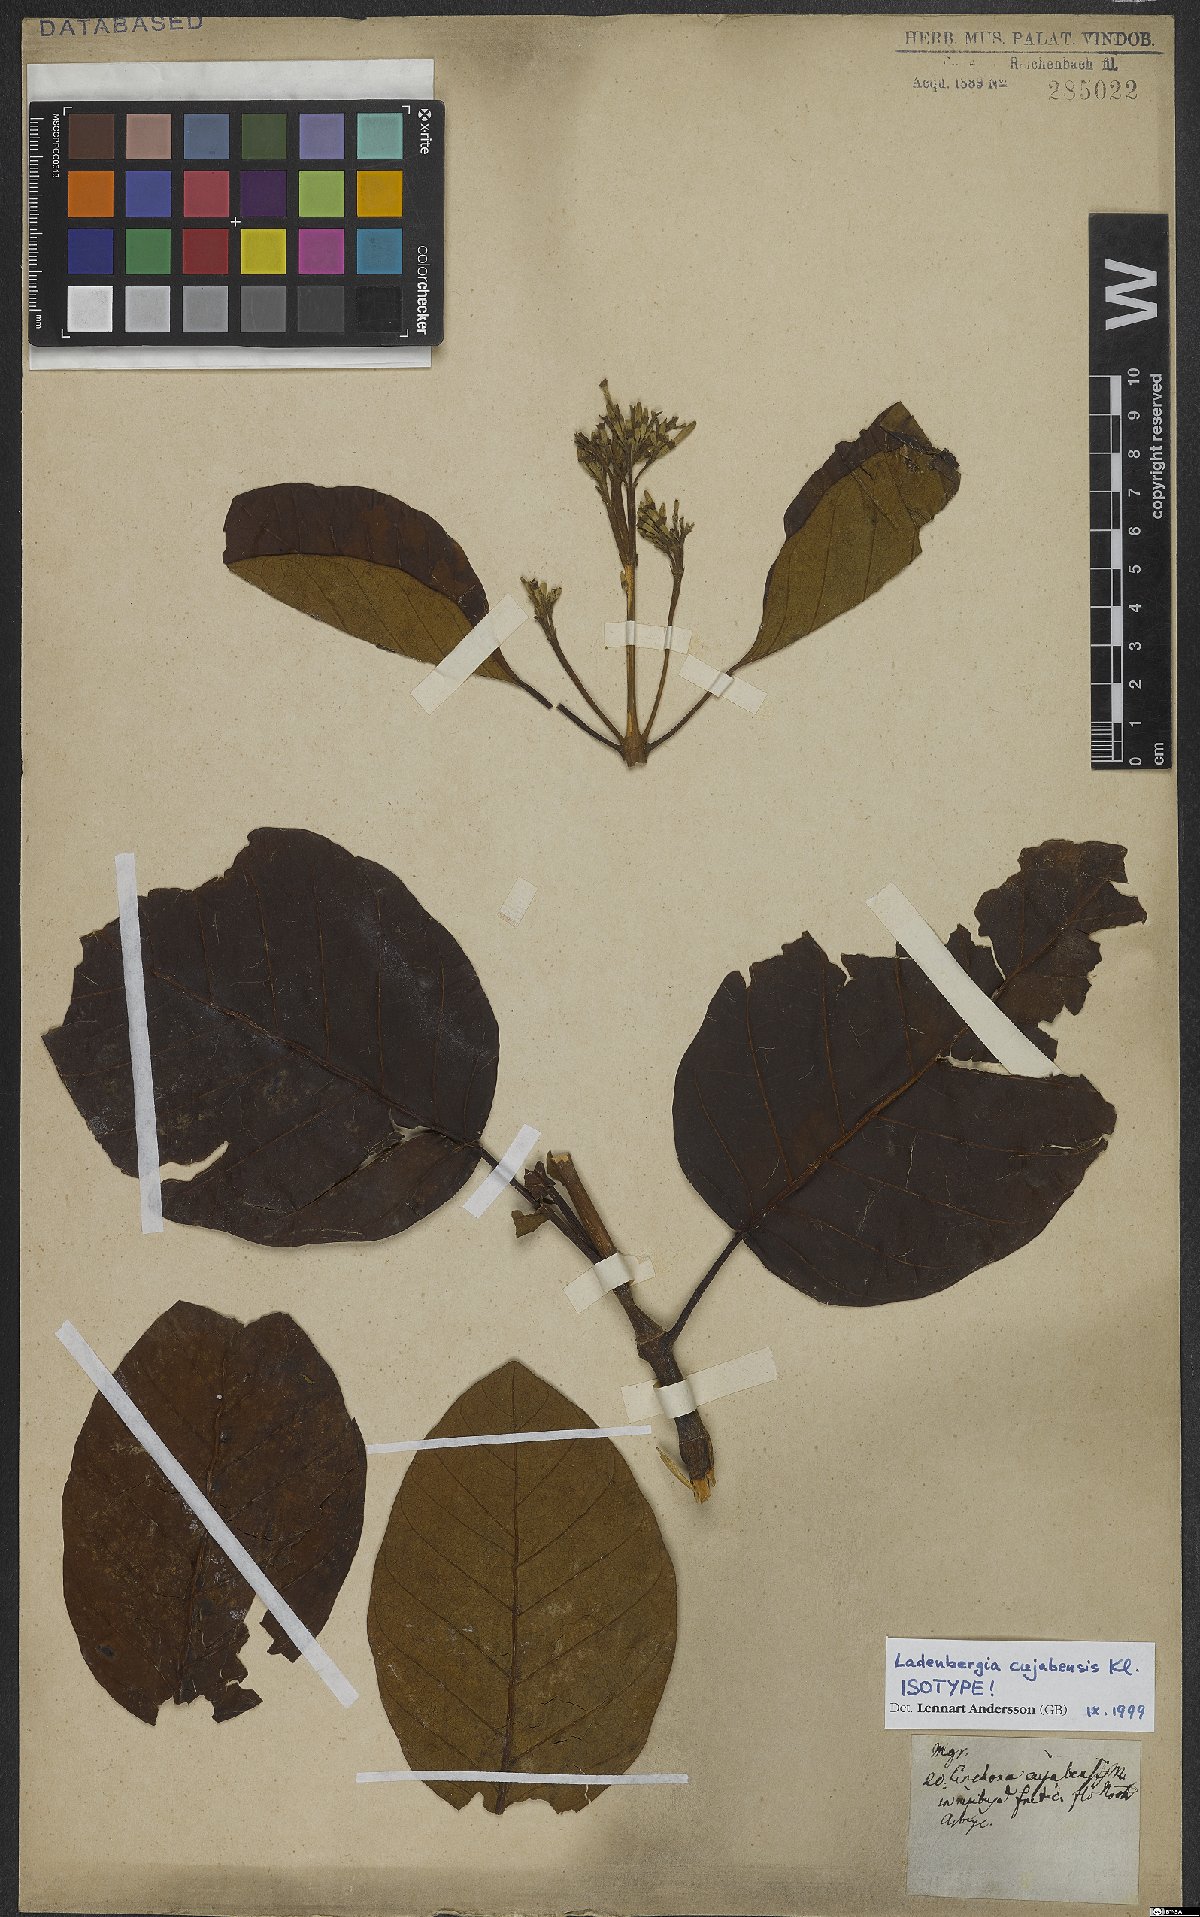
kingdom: Plantae
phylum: Tracheophyta
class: Magnoliopsida
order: Gentianales
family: Rubiaceae
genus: Ladenbergia
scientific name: Ladenbergia cujabensis
